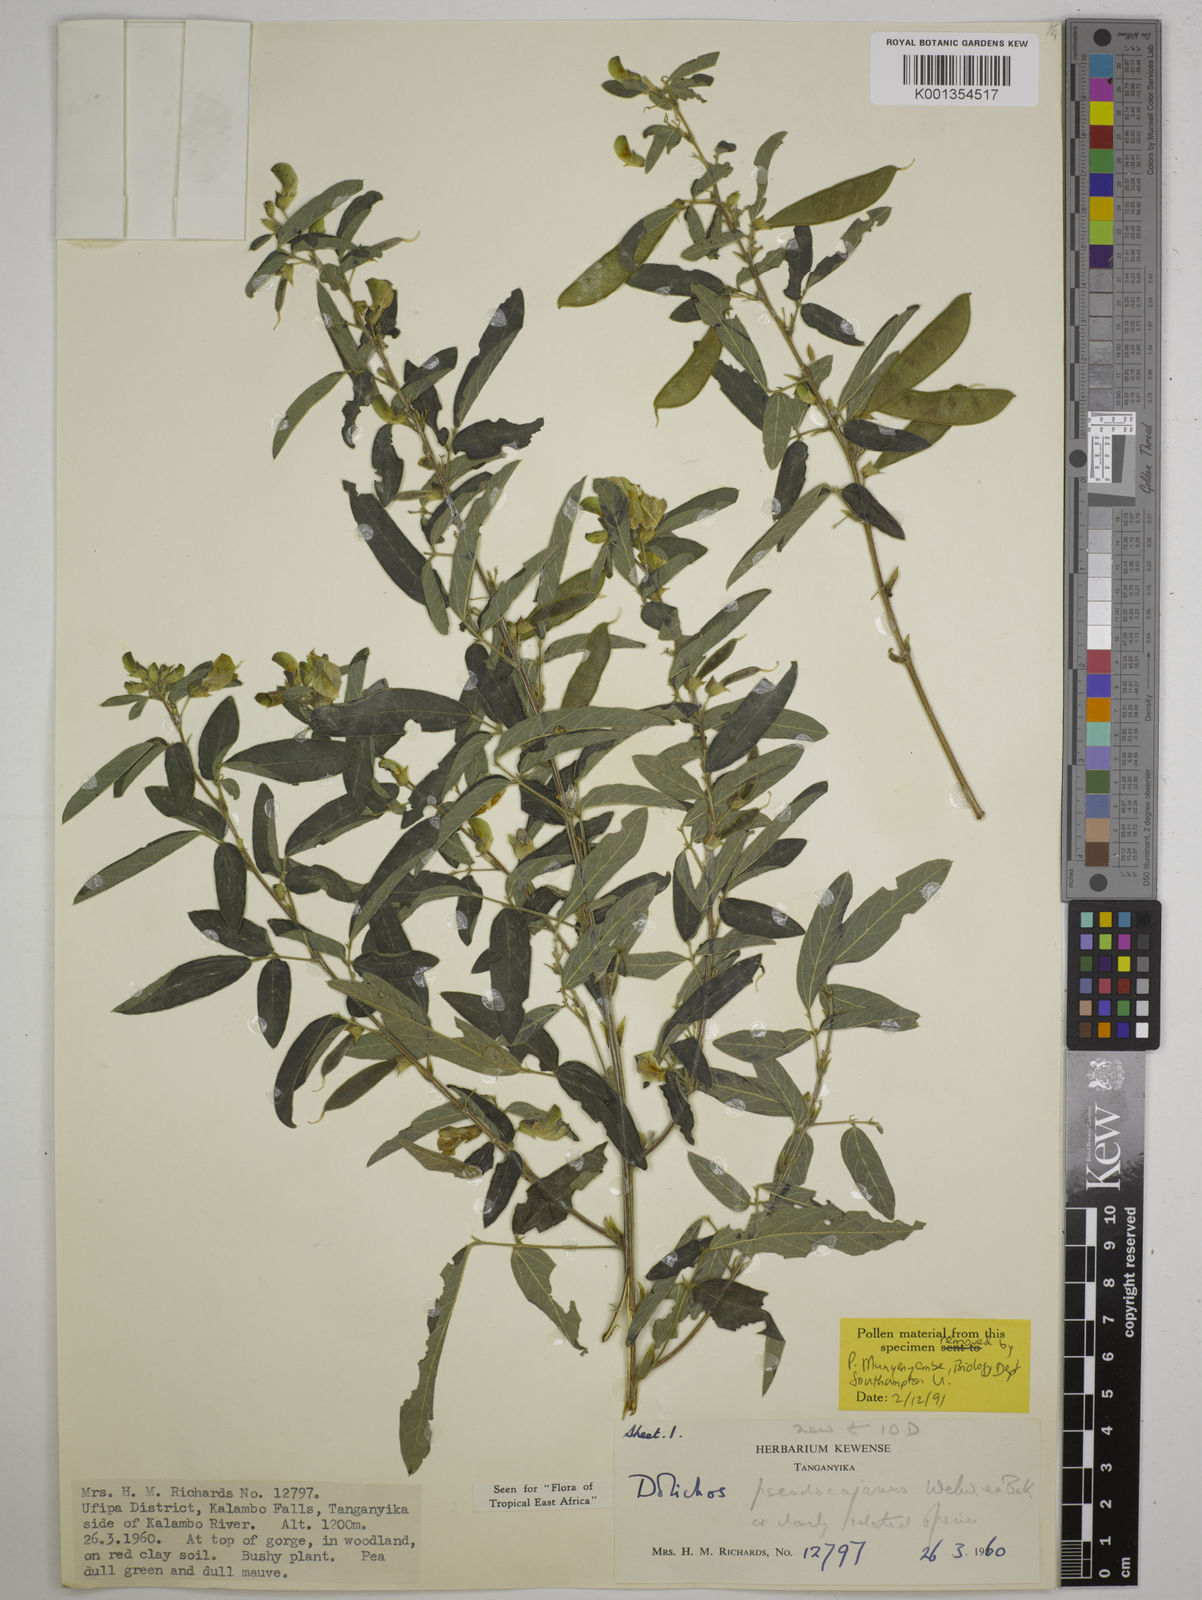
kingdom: Plantae
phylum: Tracheophyta
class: Magnoliopsida
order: Fabales
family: Fabaceae
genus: Dolichos
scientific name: Dolichos pseudocajanus
